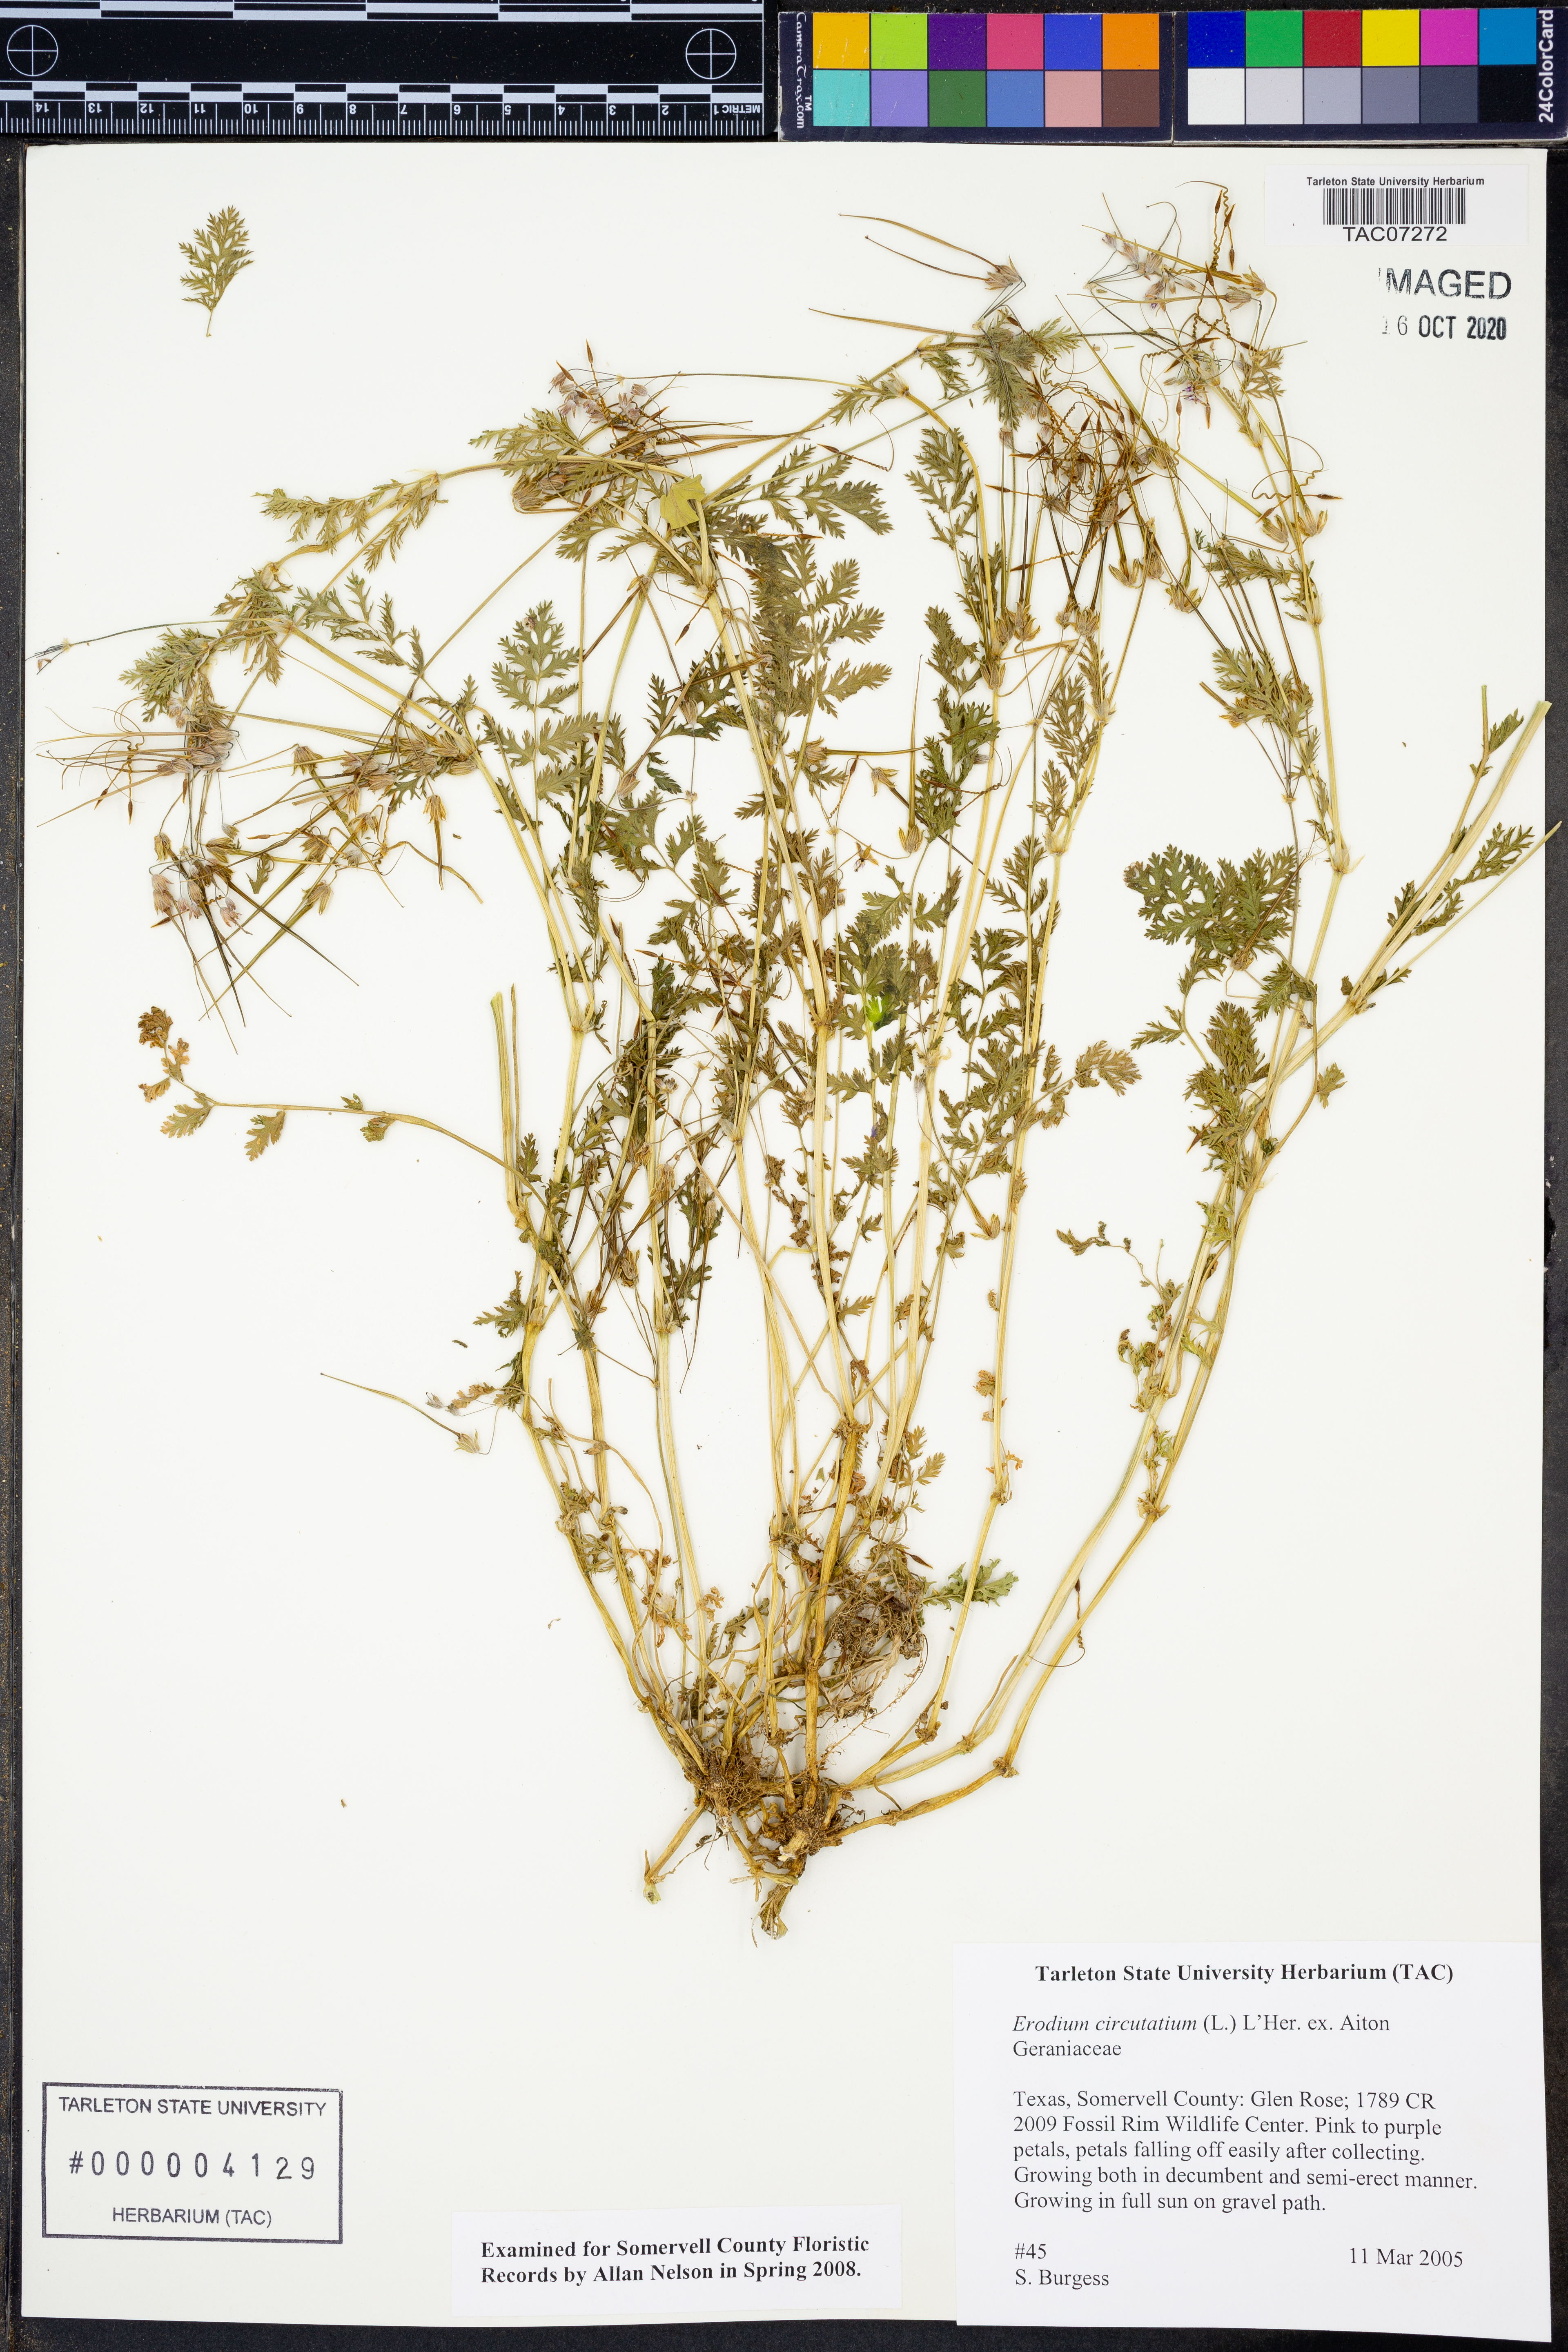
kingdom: Plantae
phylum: Tracheophyta
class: Magnoliopsida
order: Geraniales
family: Geraniaceae
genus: Erodium
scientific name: Erodium cicutarium
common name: Common stork's-bill
